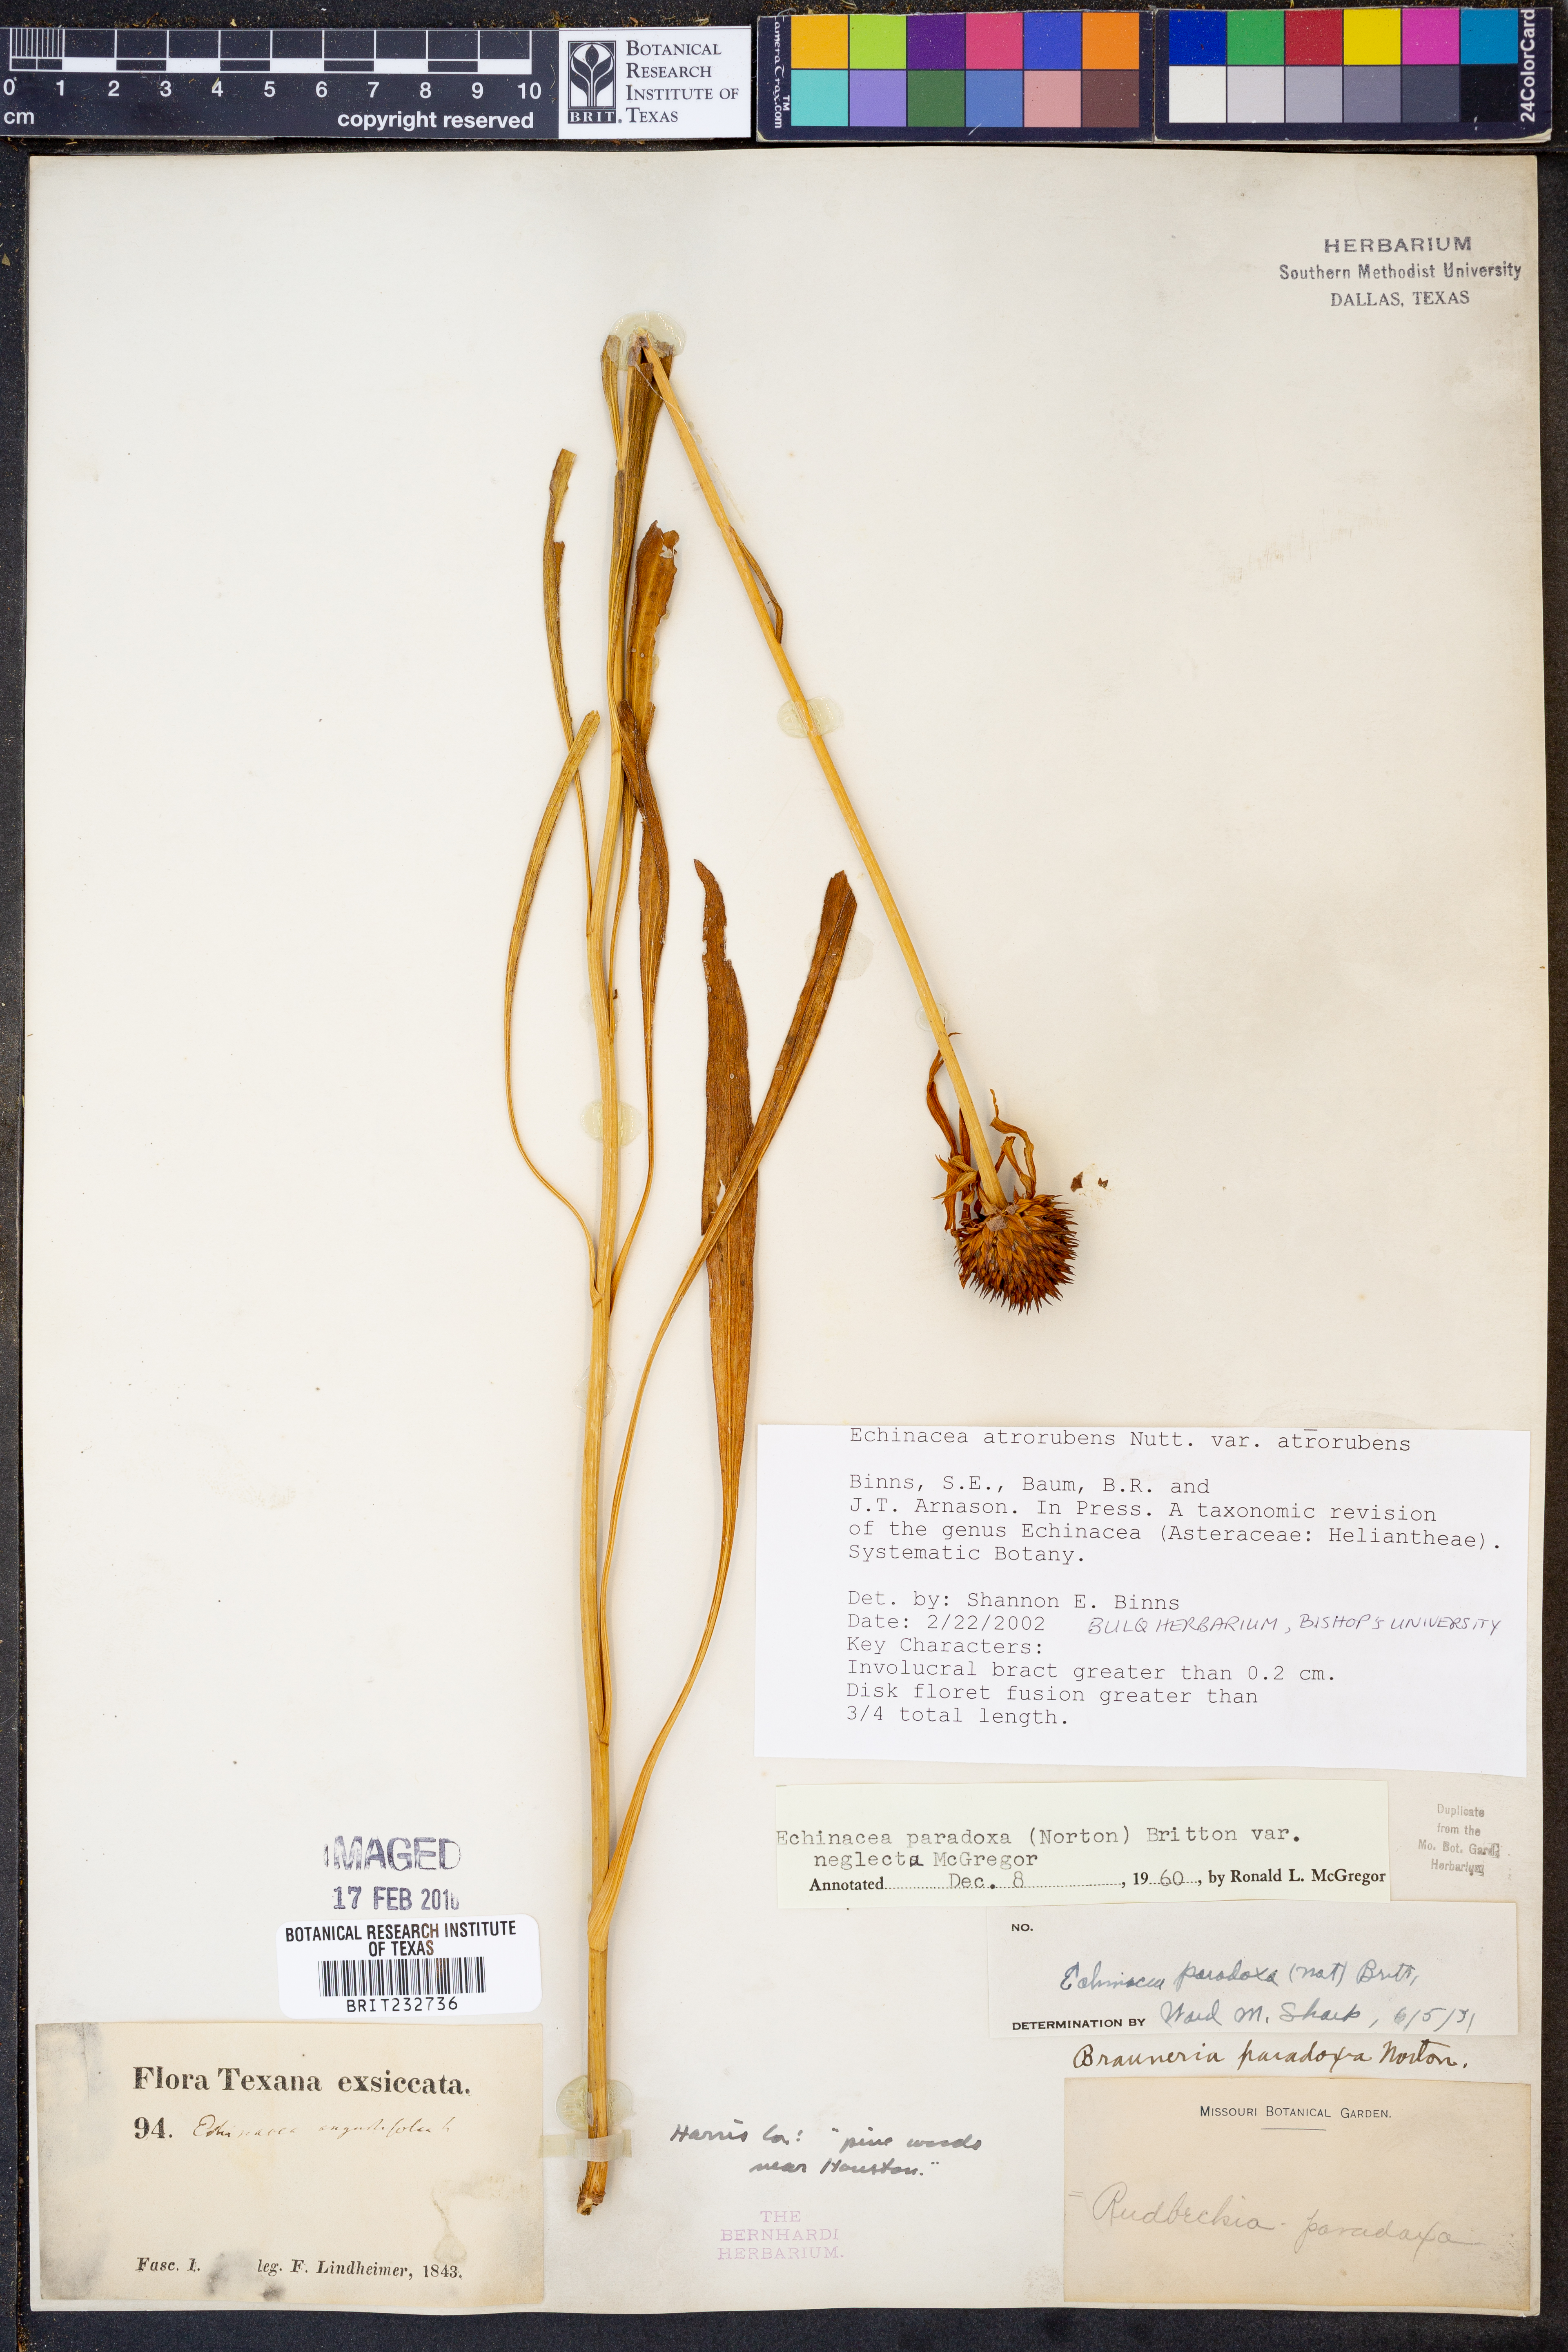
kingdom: Plantae
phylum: Tracheophyta
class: Magnoliopsida
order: Asterales
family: Asteraceae
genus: Echinacea
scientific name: Echinacea atrorubens
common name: Topeka purple-coneflower
